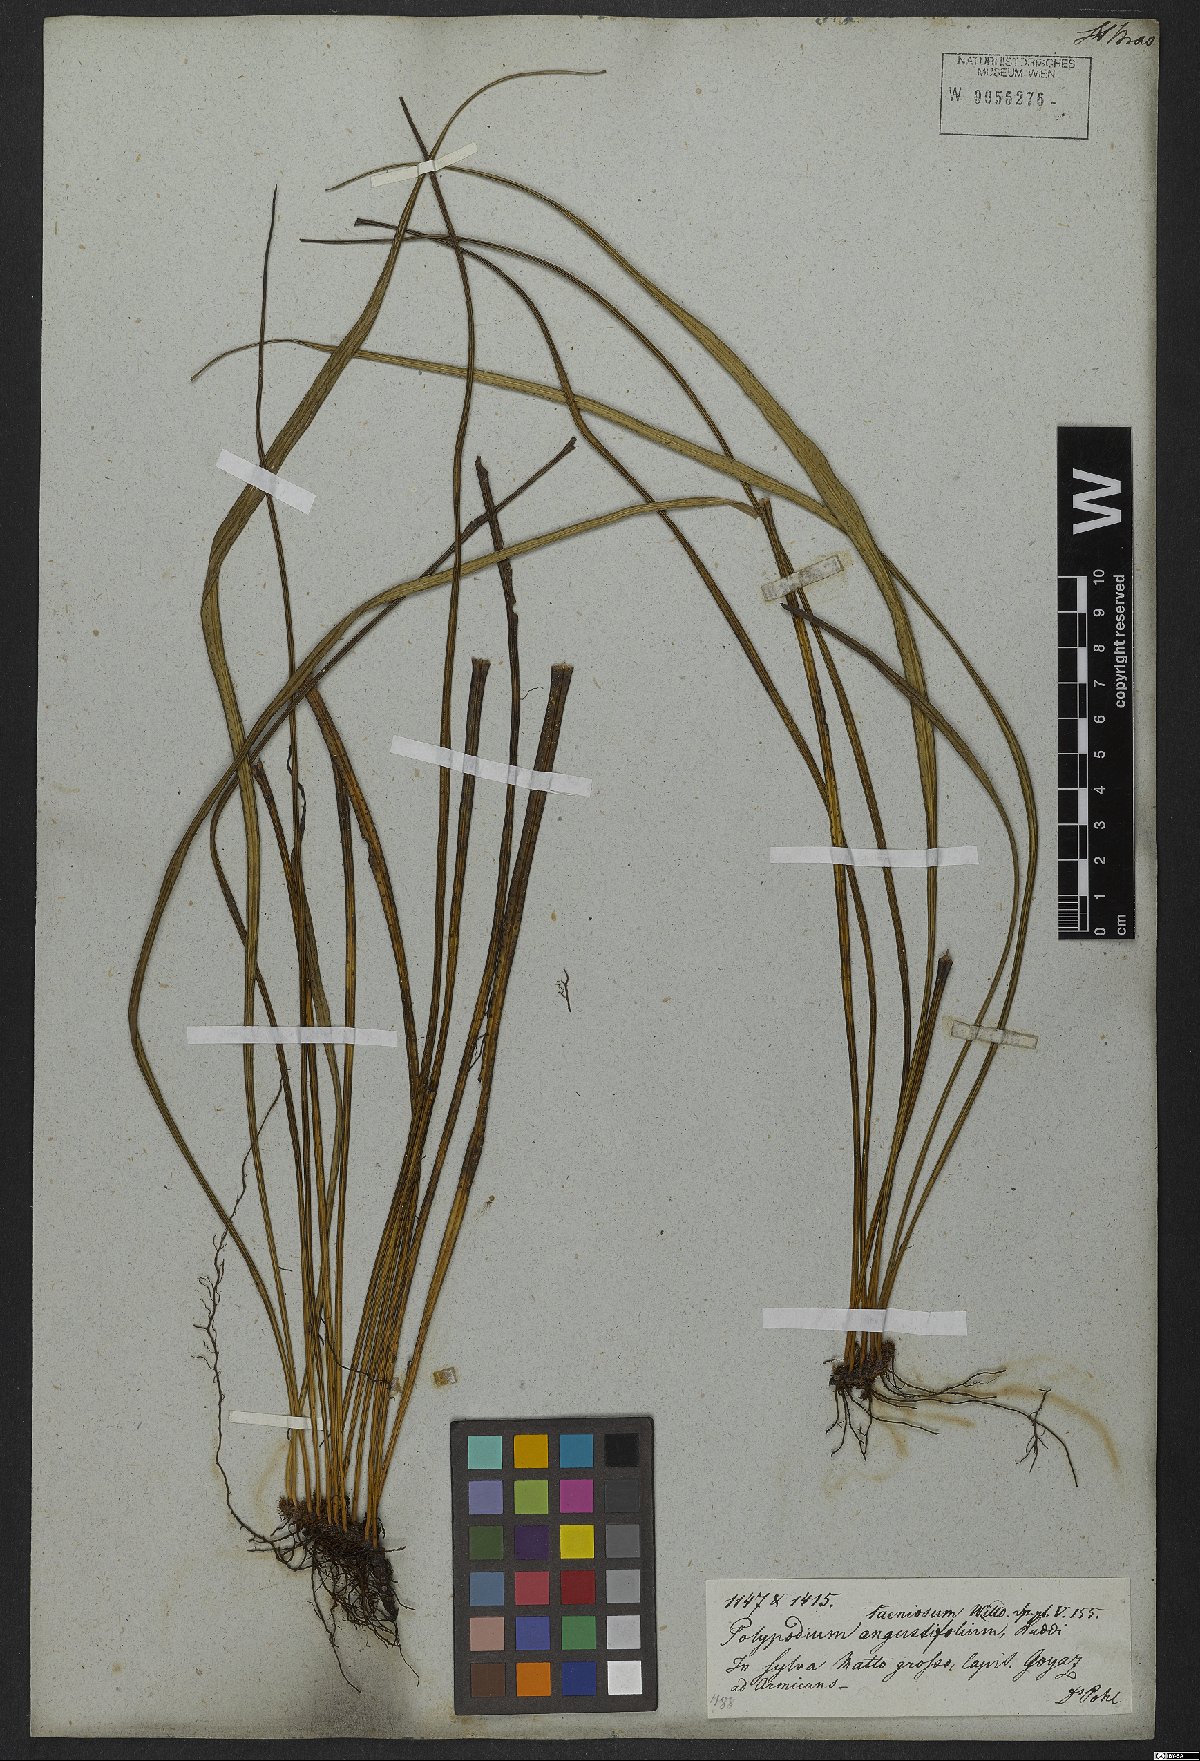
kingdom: Plantae
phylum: Tracheophyta
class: Polypodiopsida
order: Polypodiales
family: Polypodiaceae
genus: Campyloneurum
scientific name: Campyloneurum ensifolium
